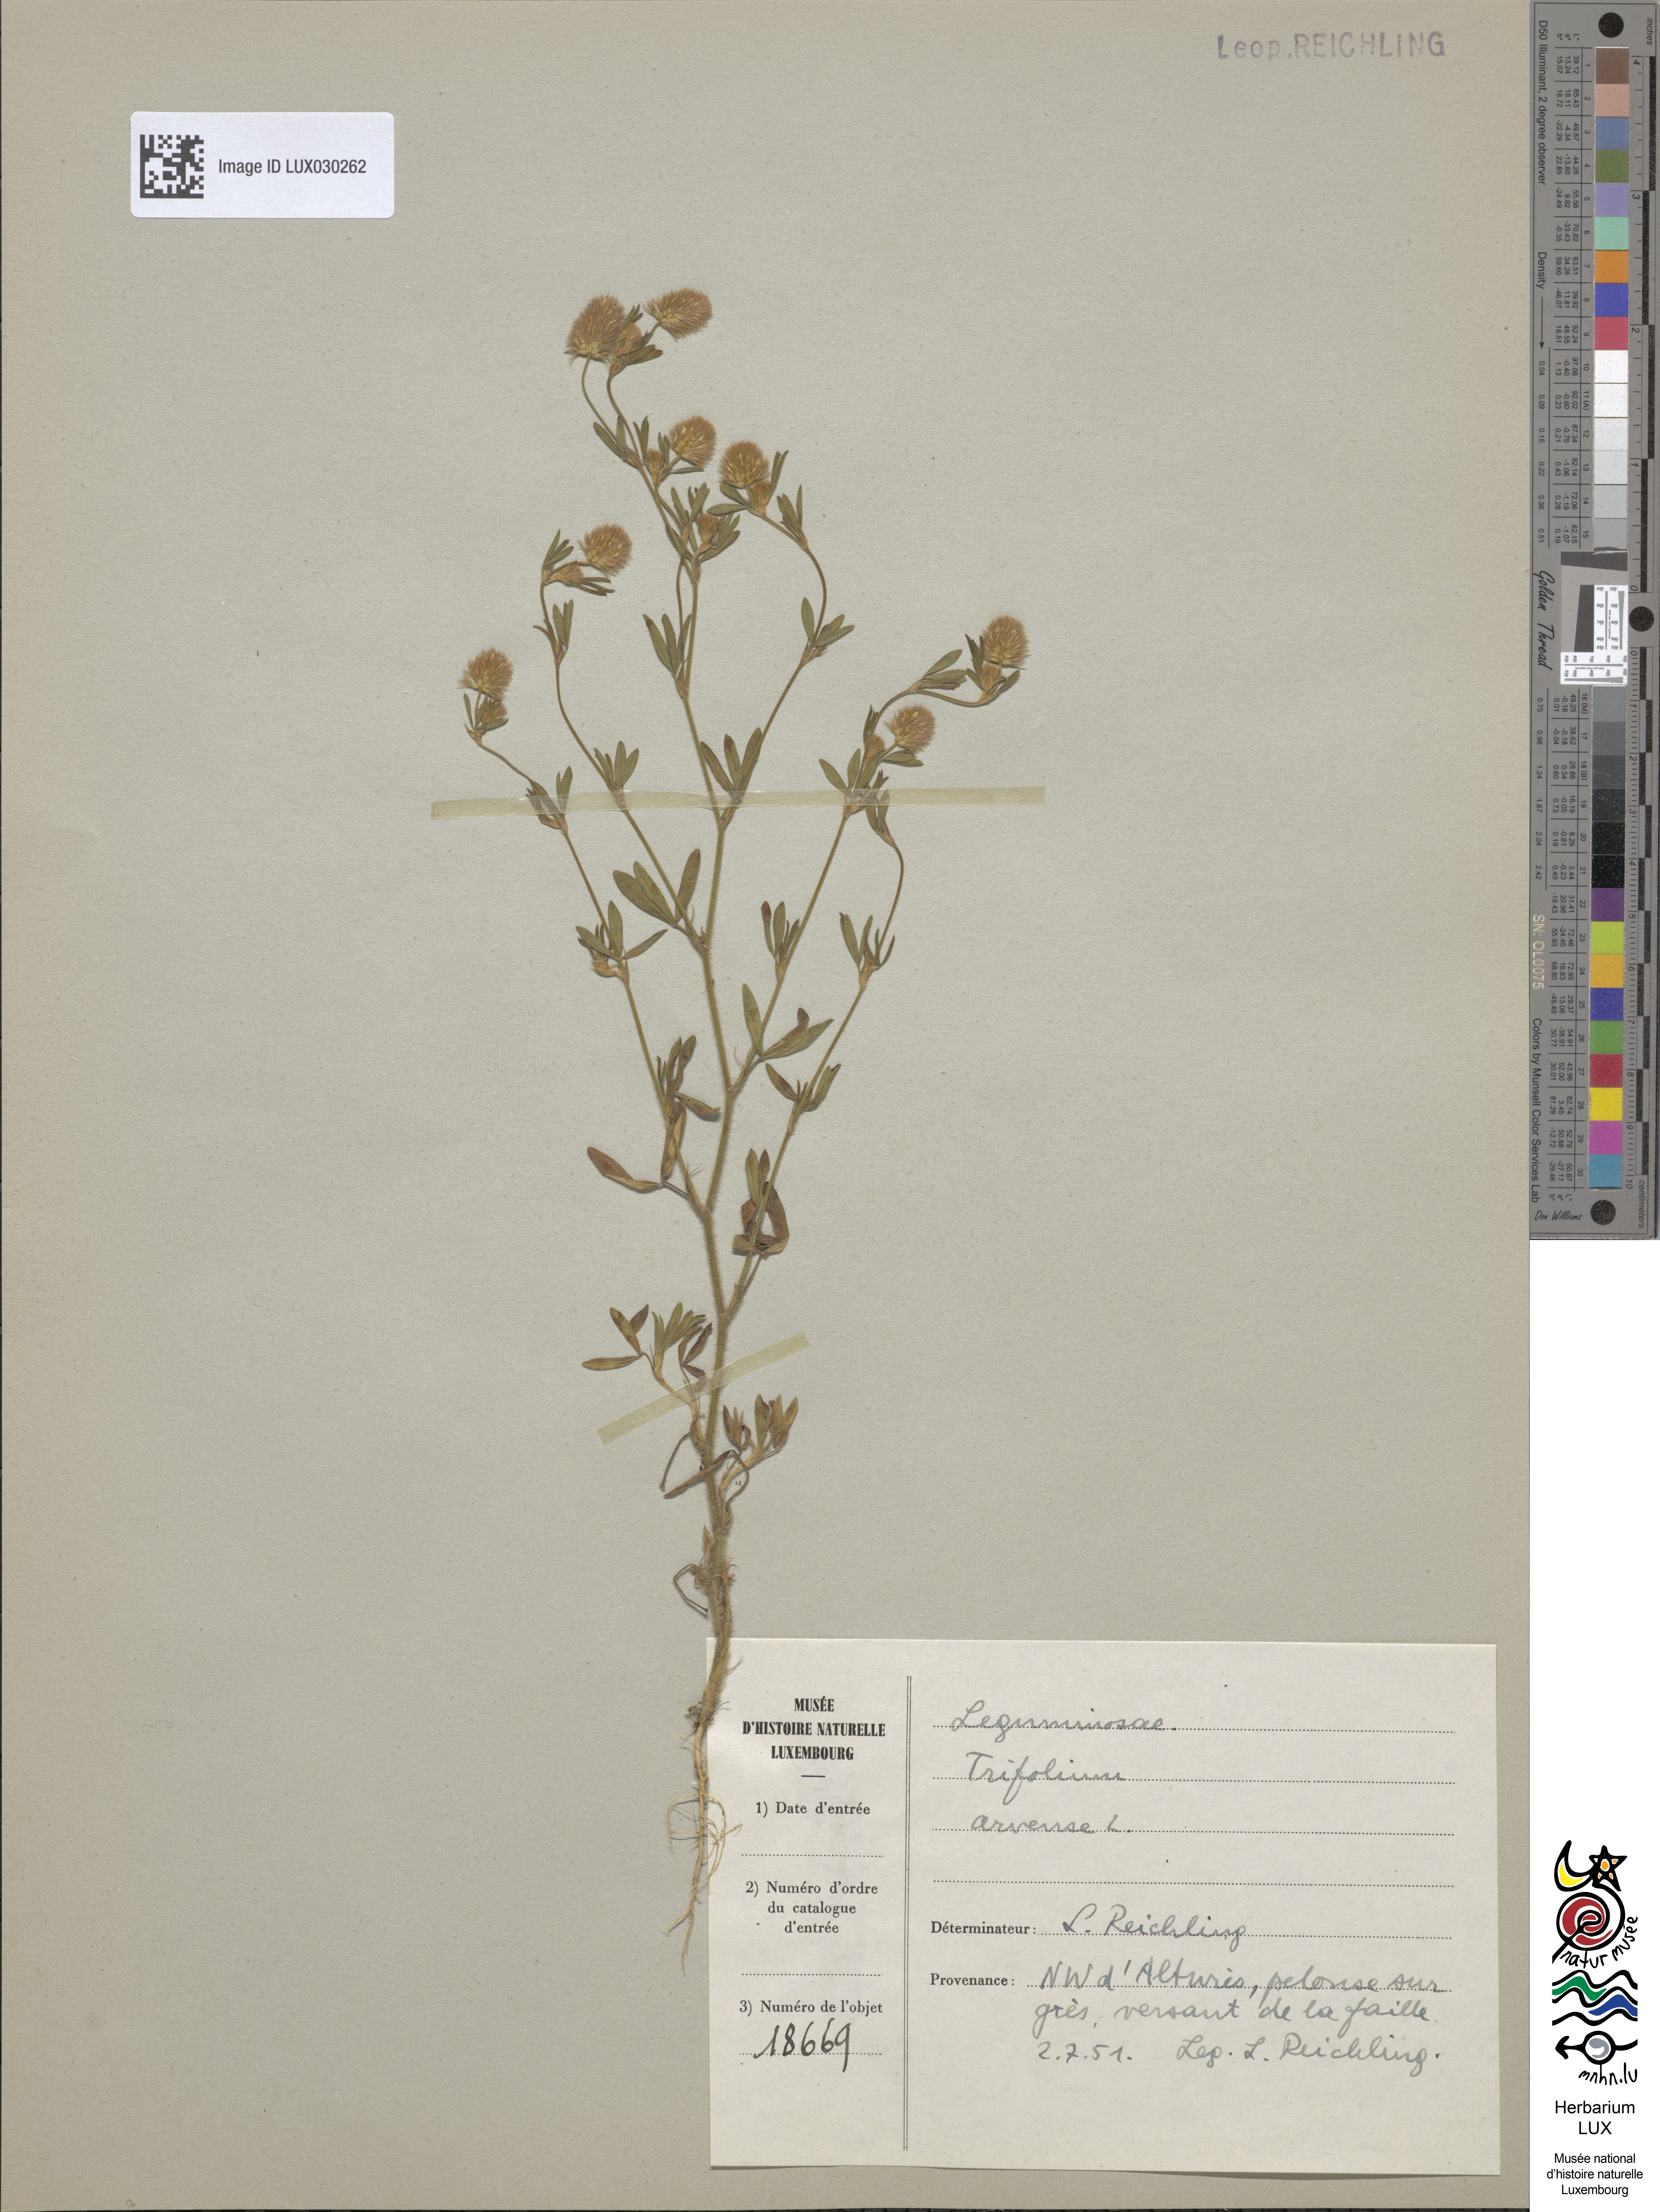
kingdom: Plantae
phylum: Tracheophyta
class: Magnoliopsida
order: Fabales
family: Fabaceae
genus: Trifolium
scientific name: Trifolium arvense
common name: Hare's-foot clover
